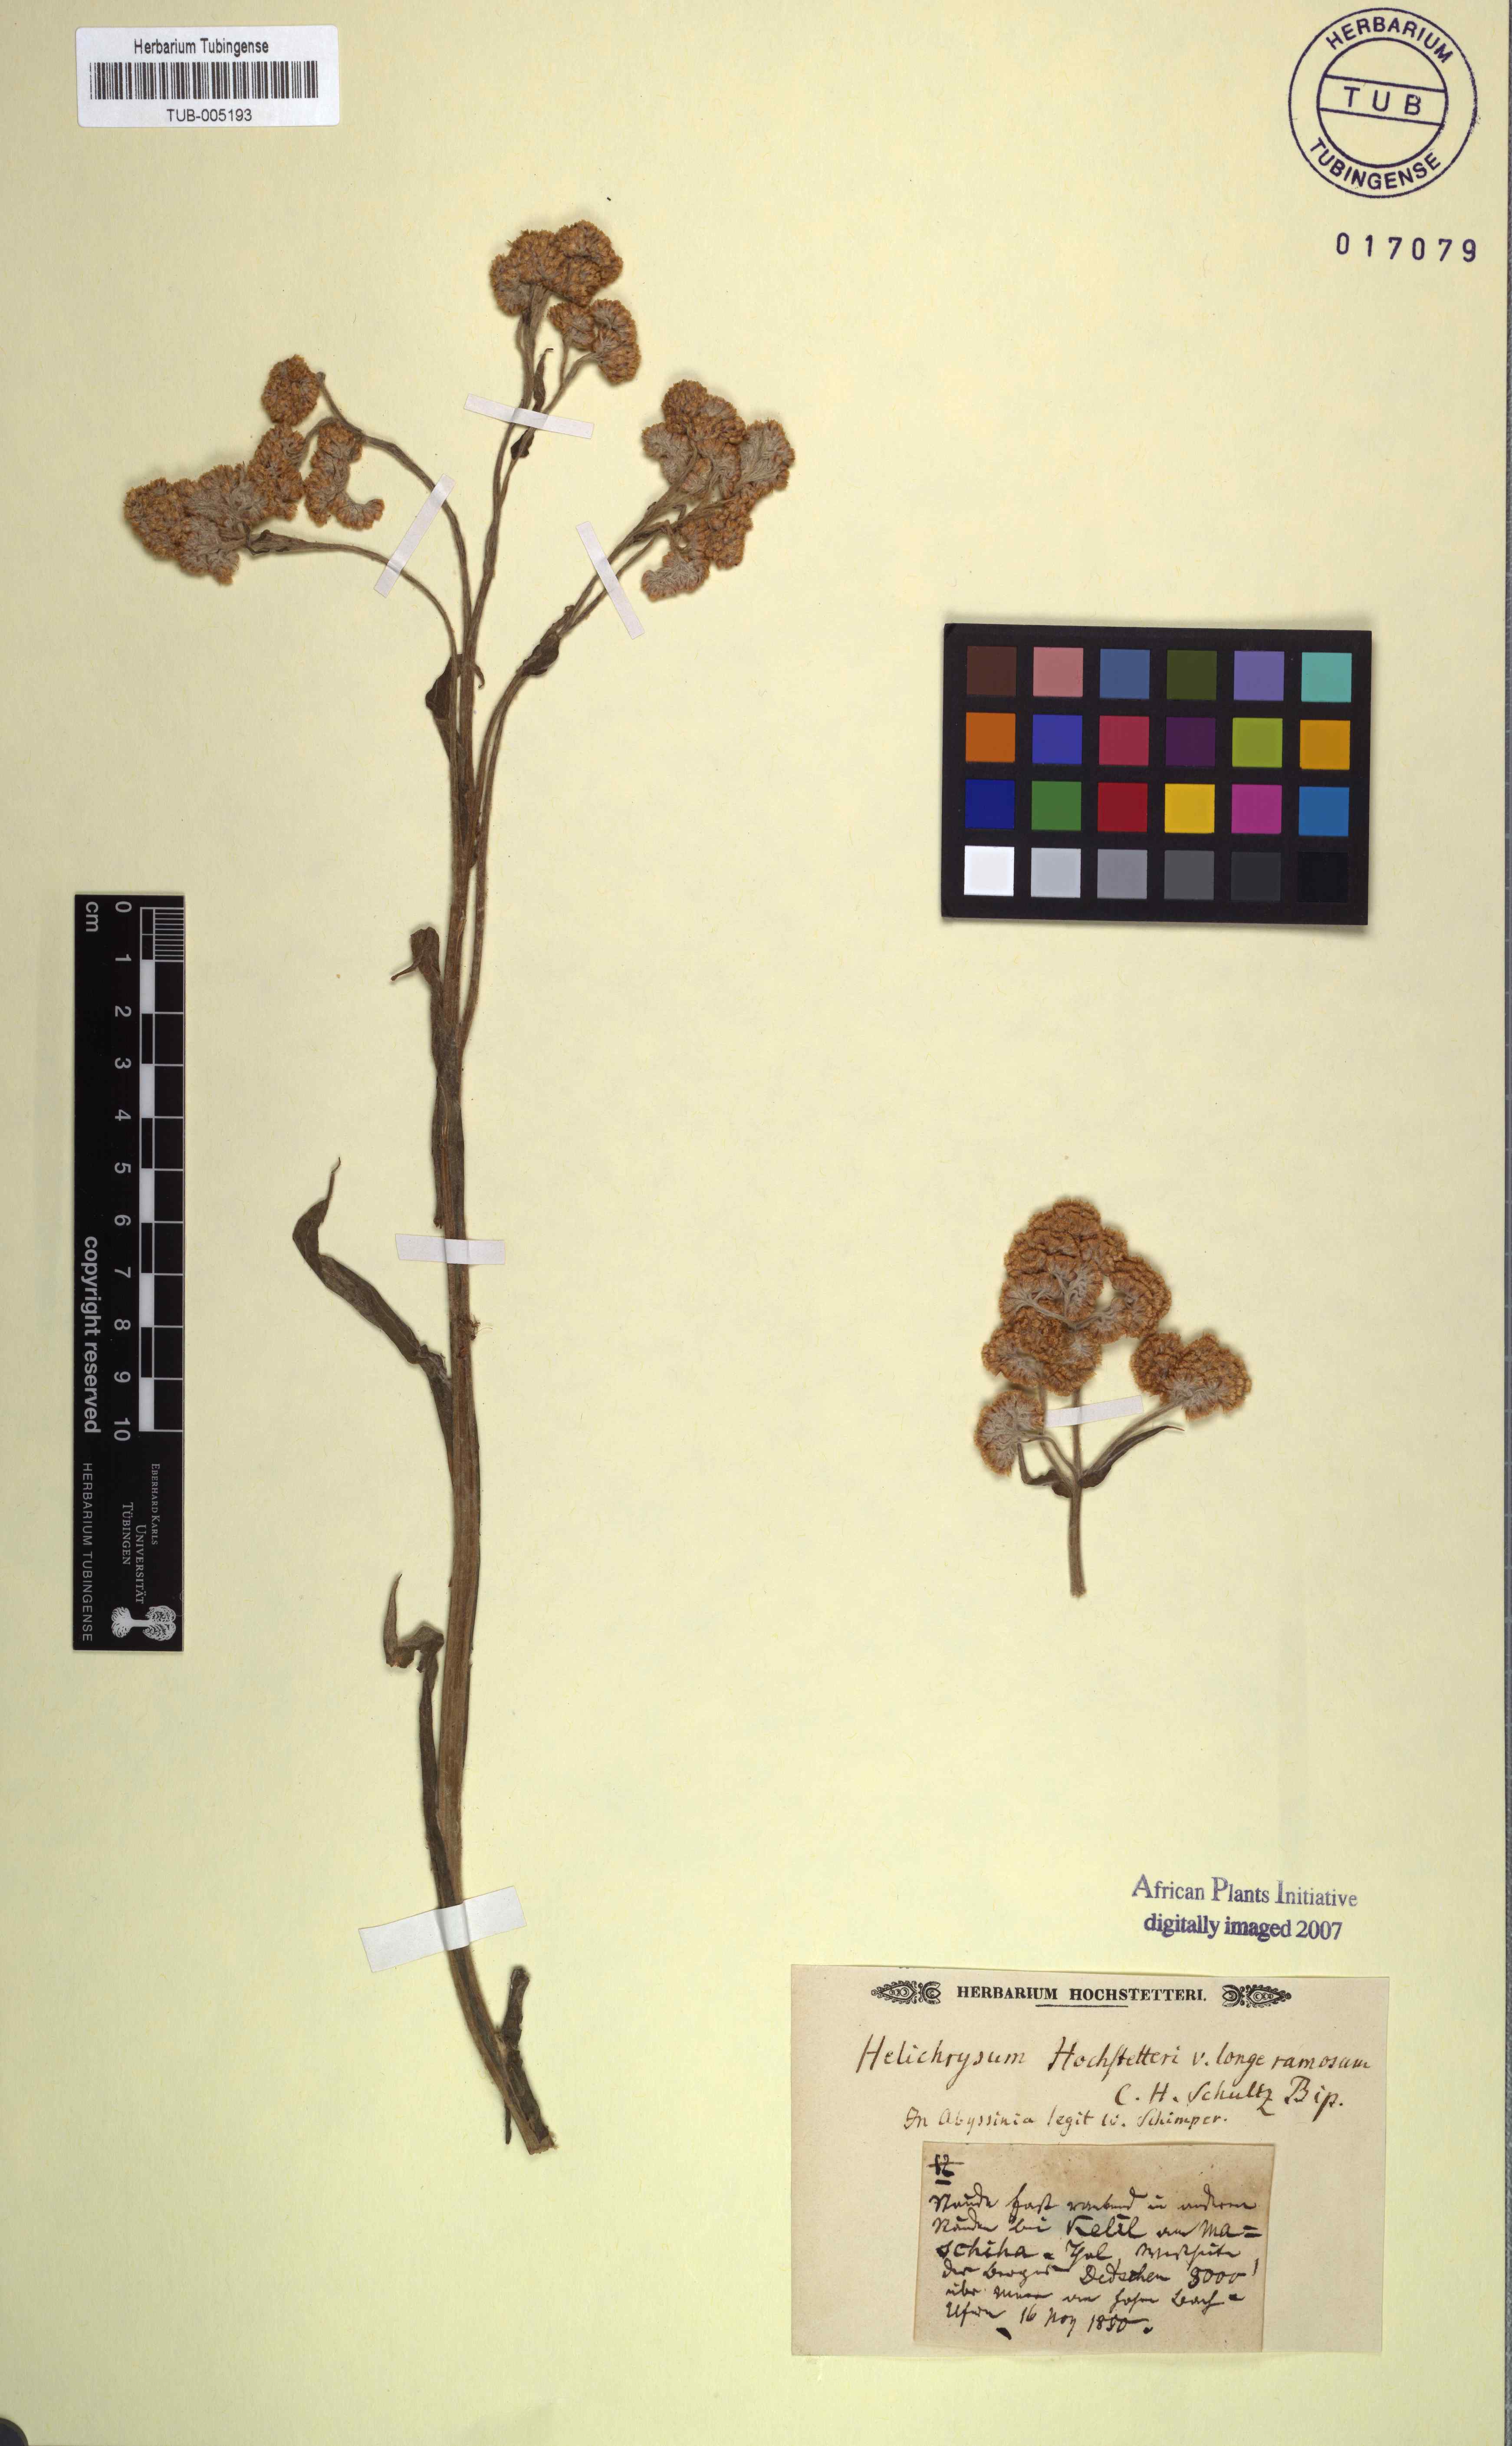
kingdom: Plantae
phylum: Tracheophyta
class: Magnoliopsida
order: Asterales
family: Asteraceae
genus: Helichrysum
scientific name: Helichrysum odoratissimum
